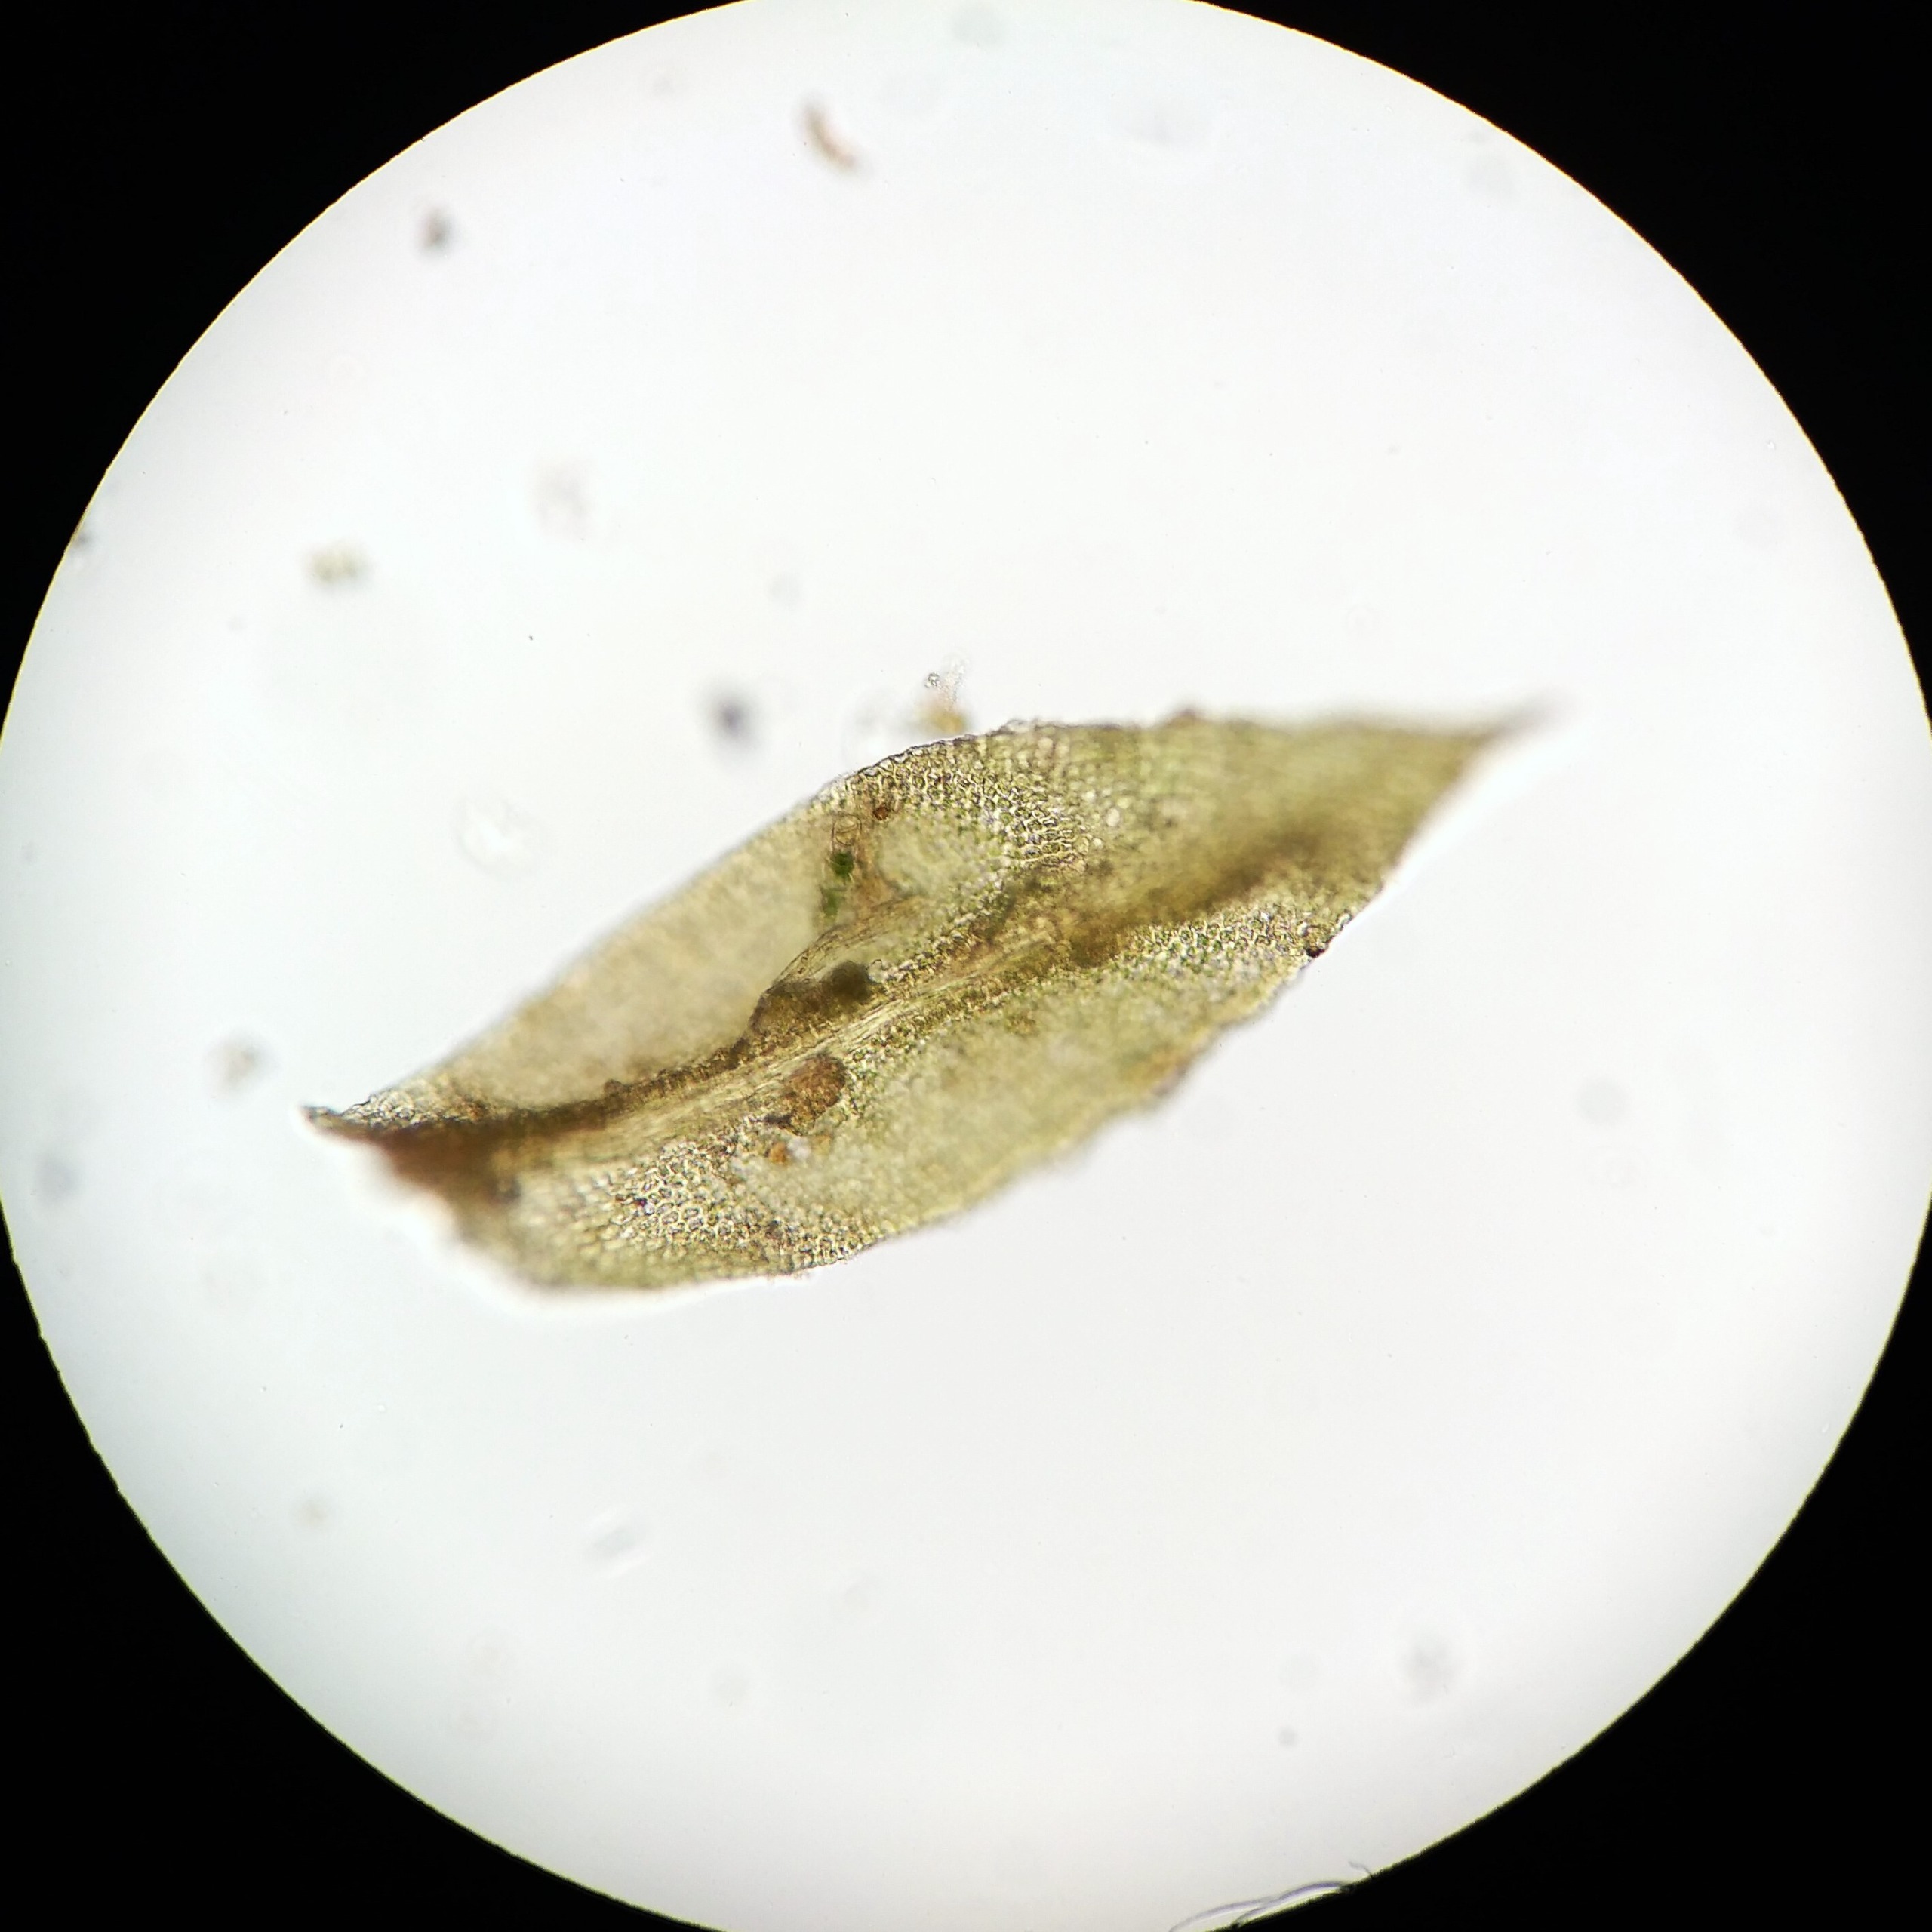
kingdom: Plantae
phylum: Bryophyta
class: Bryopsida
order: Orthotrichales
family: Orthotrichaceae
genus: Zygodon
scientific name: Zygodon conoideus
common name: Tand-køllemos
